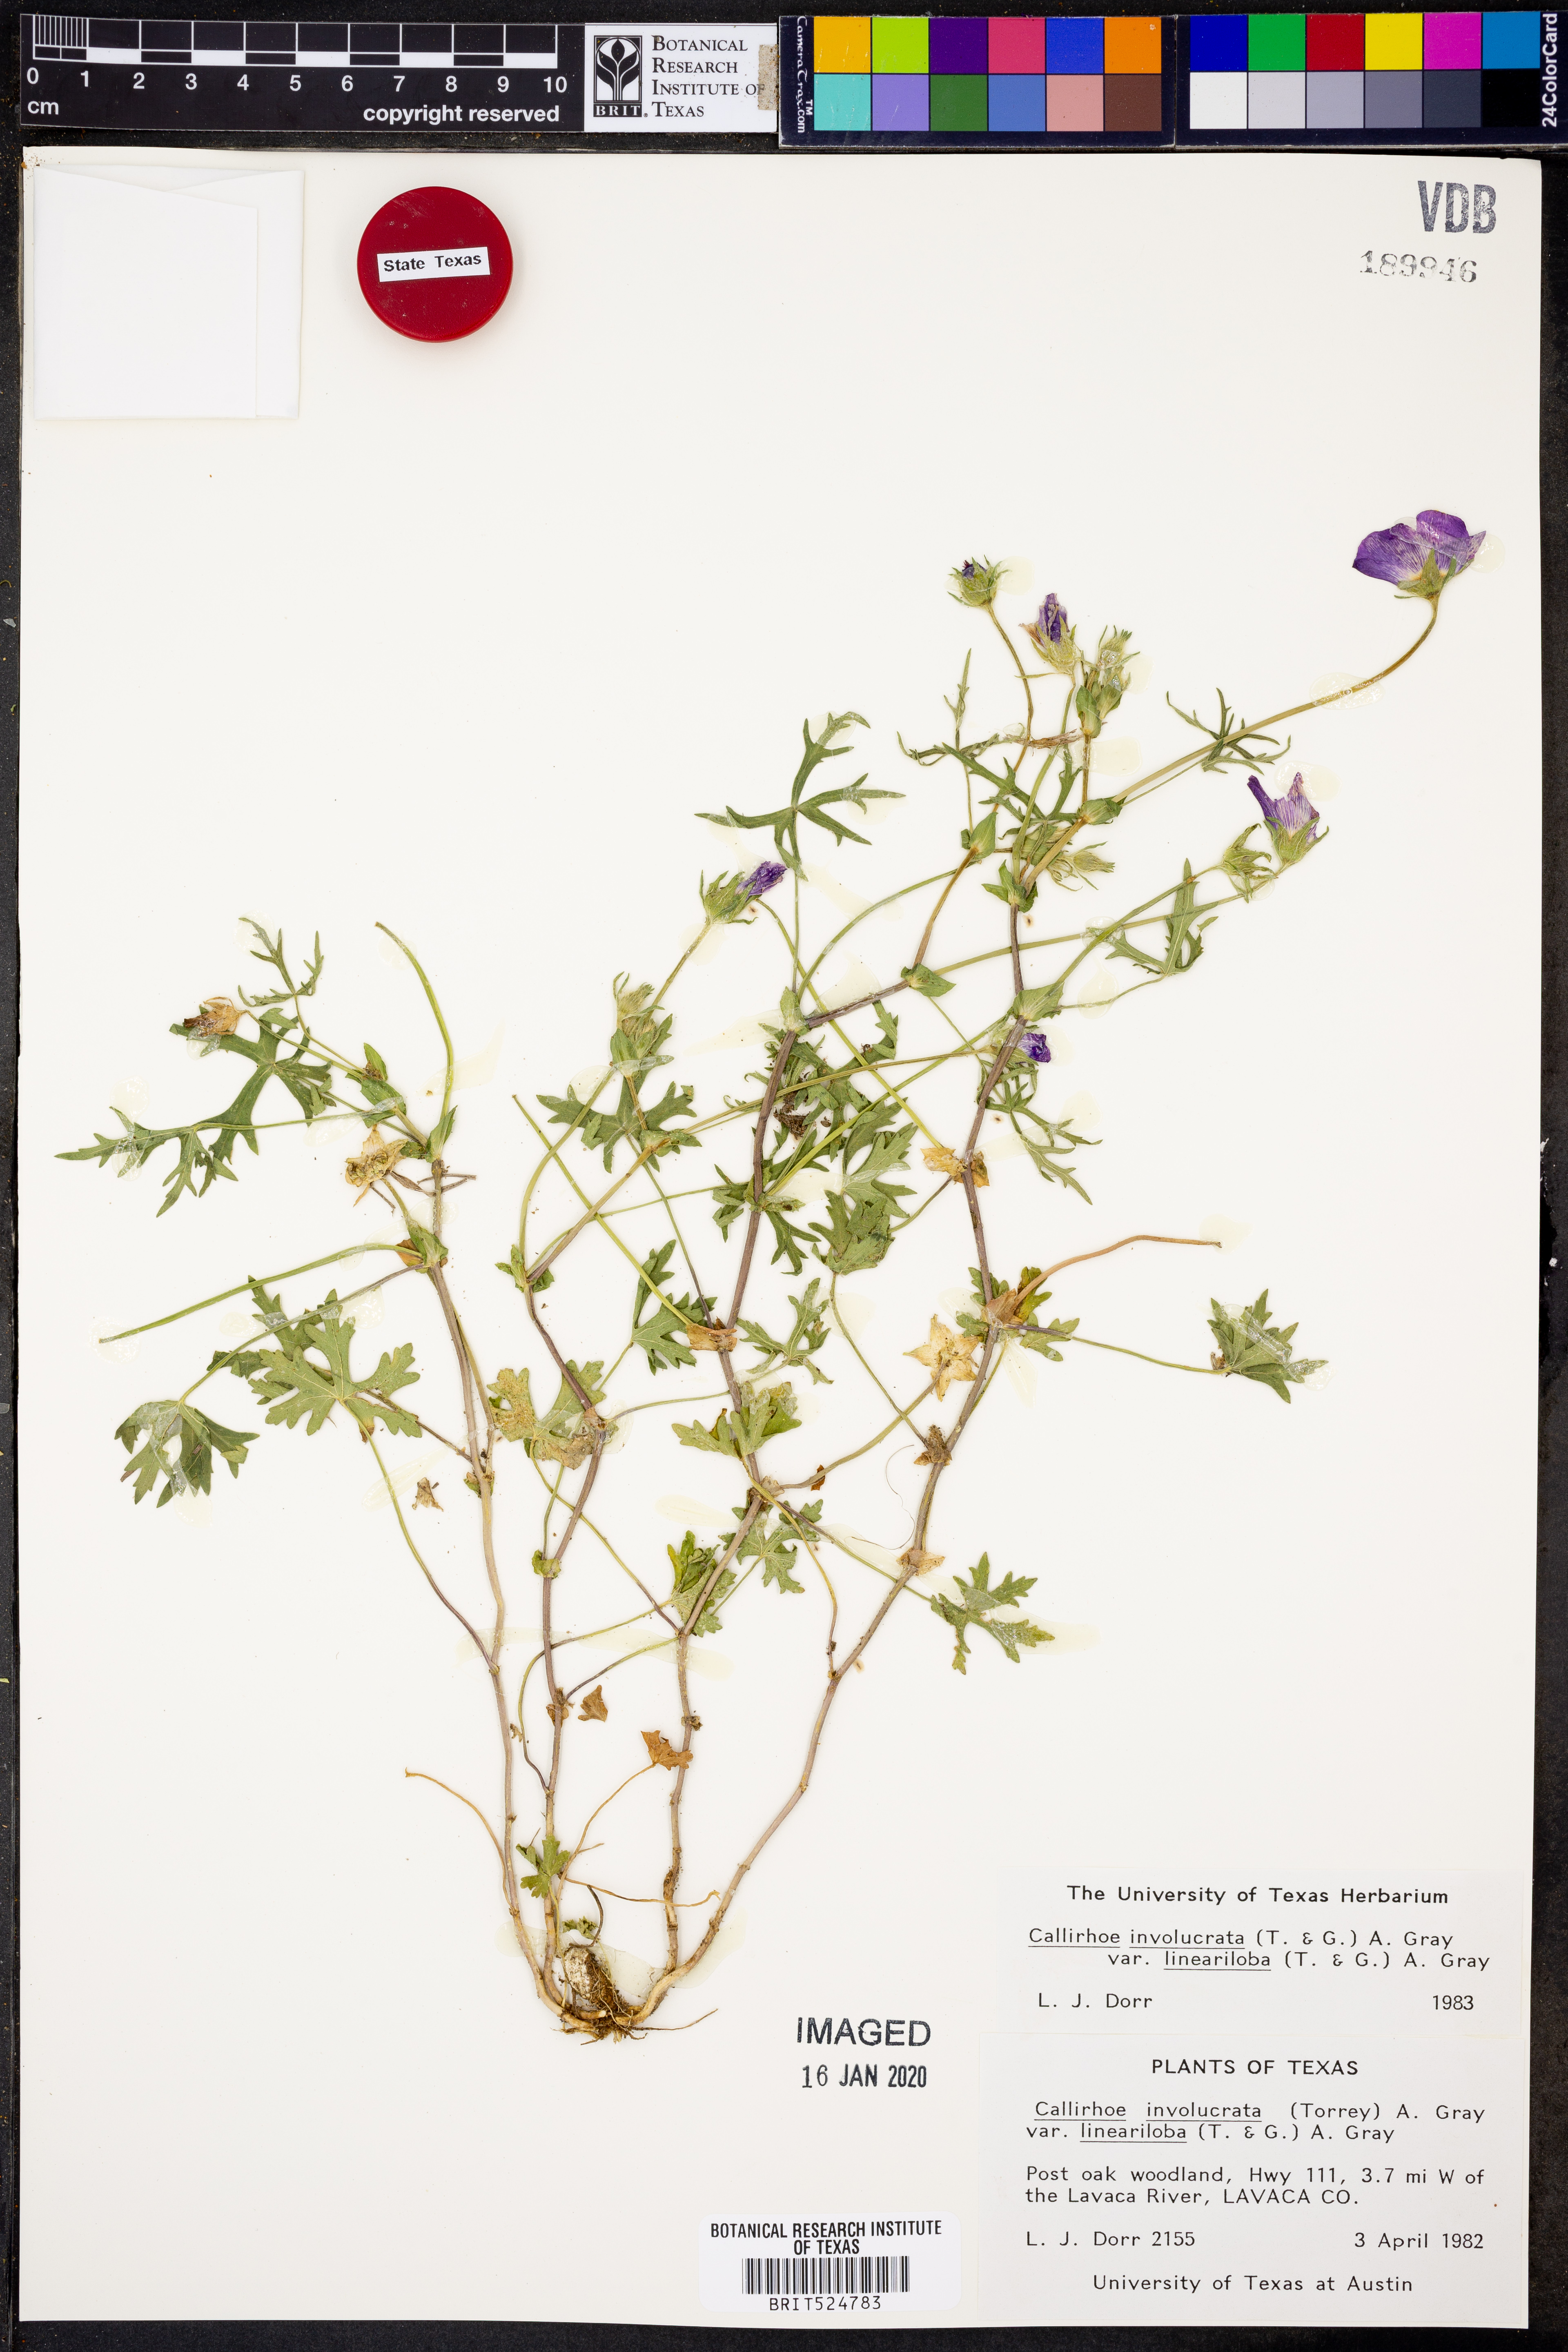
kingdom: Plantae
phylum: Tracheophyta
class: Magnoliopsida
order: Malvales
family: Malvaceae
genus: Callirhoe
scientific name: Callirhoe involucrata
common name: Purple poppy-mallow
